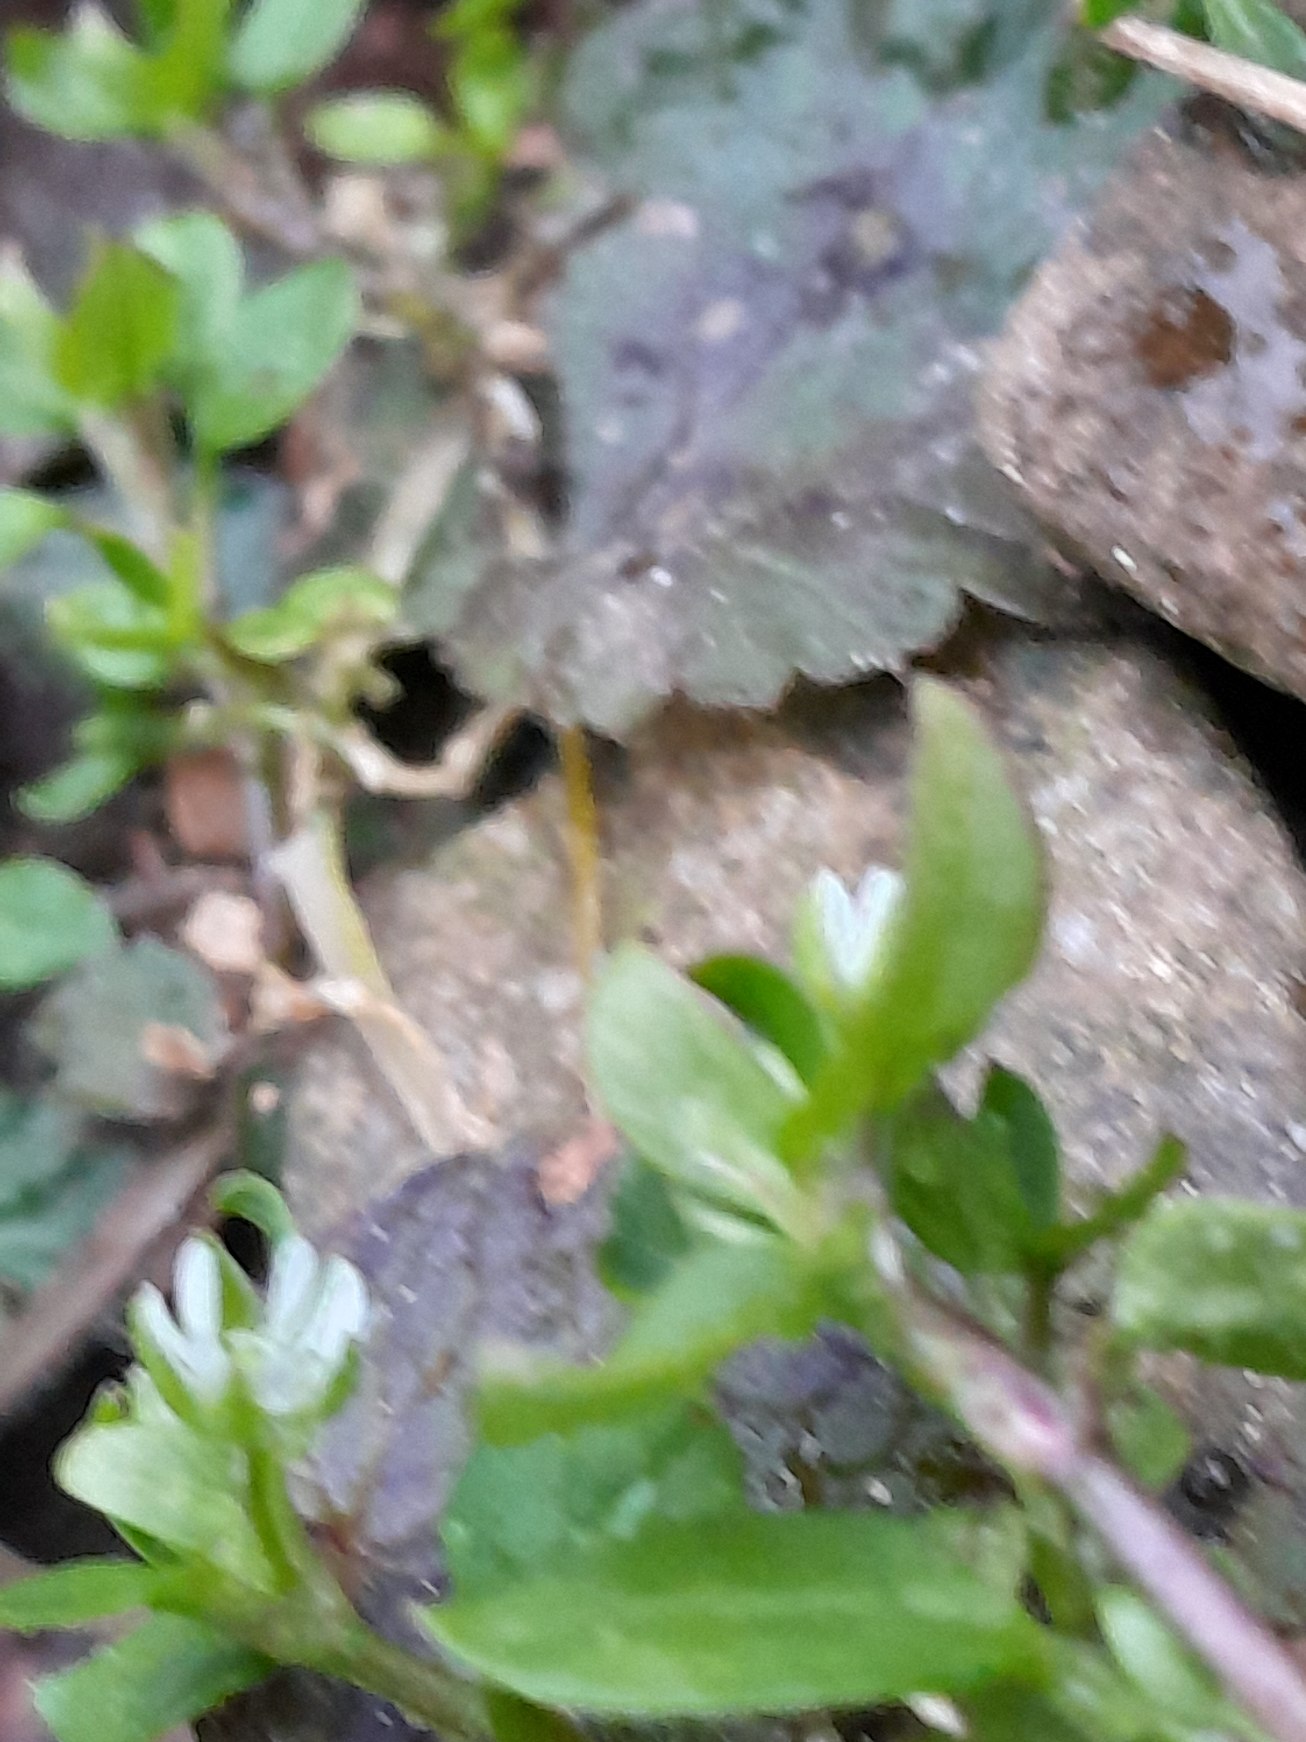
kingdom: Plantae
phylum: Tracheophyta
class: Magnoliopsida
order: Caryophyllales
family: Caryophyllaceae
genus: Stellaria
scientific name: Stellaria media
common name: Almindelig fuglegræs
